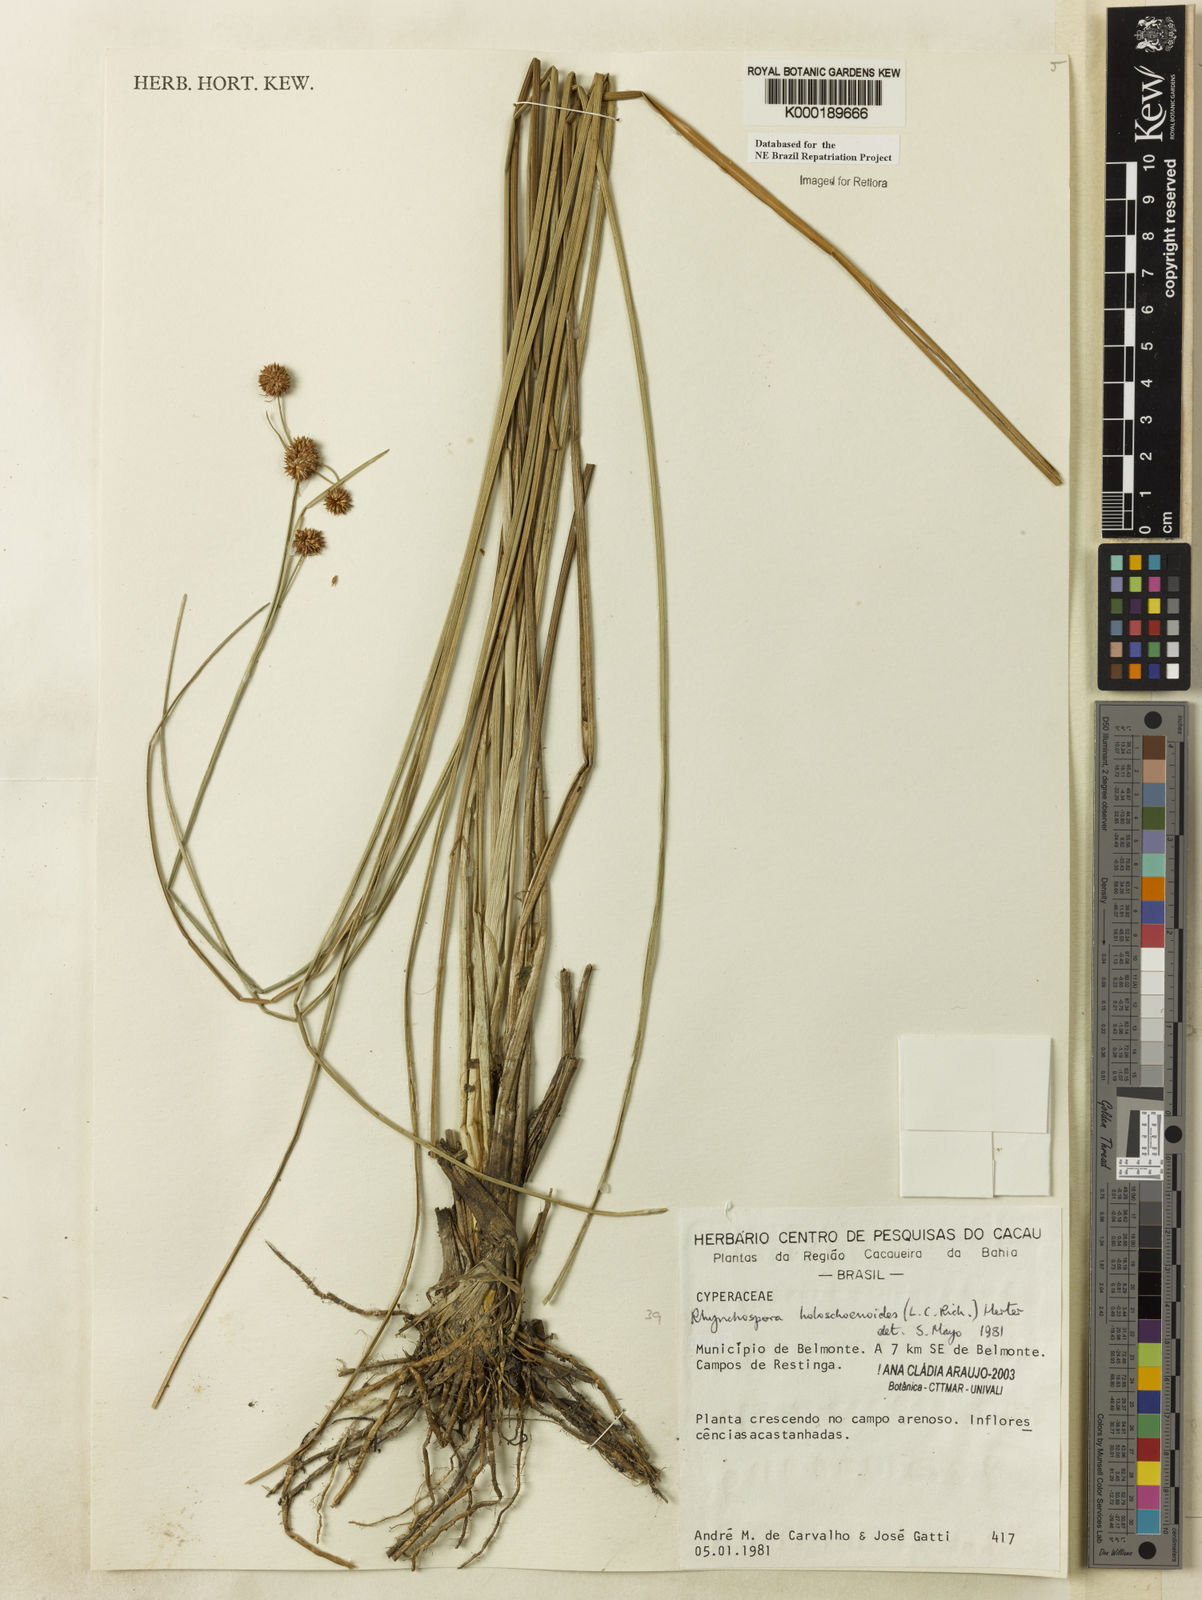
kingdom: Plantae
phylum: Tracheophyta
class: Liliopsida
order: Poales
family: Cyperaceae
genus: Rhynchospora
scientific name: Rhynchospora holoschoenoides
